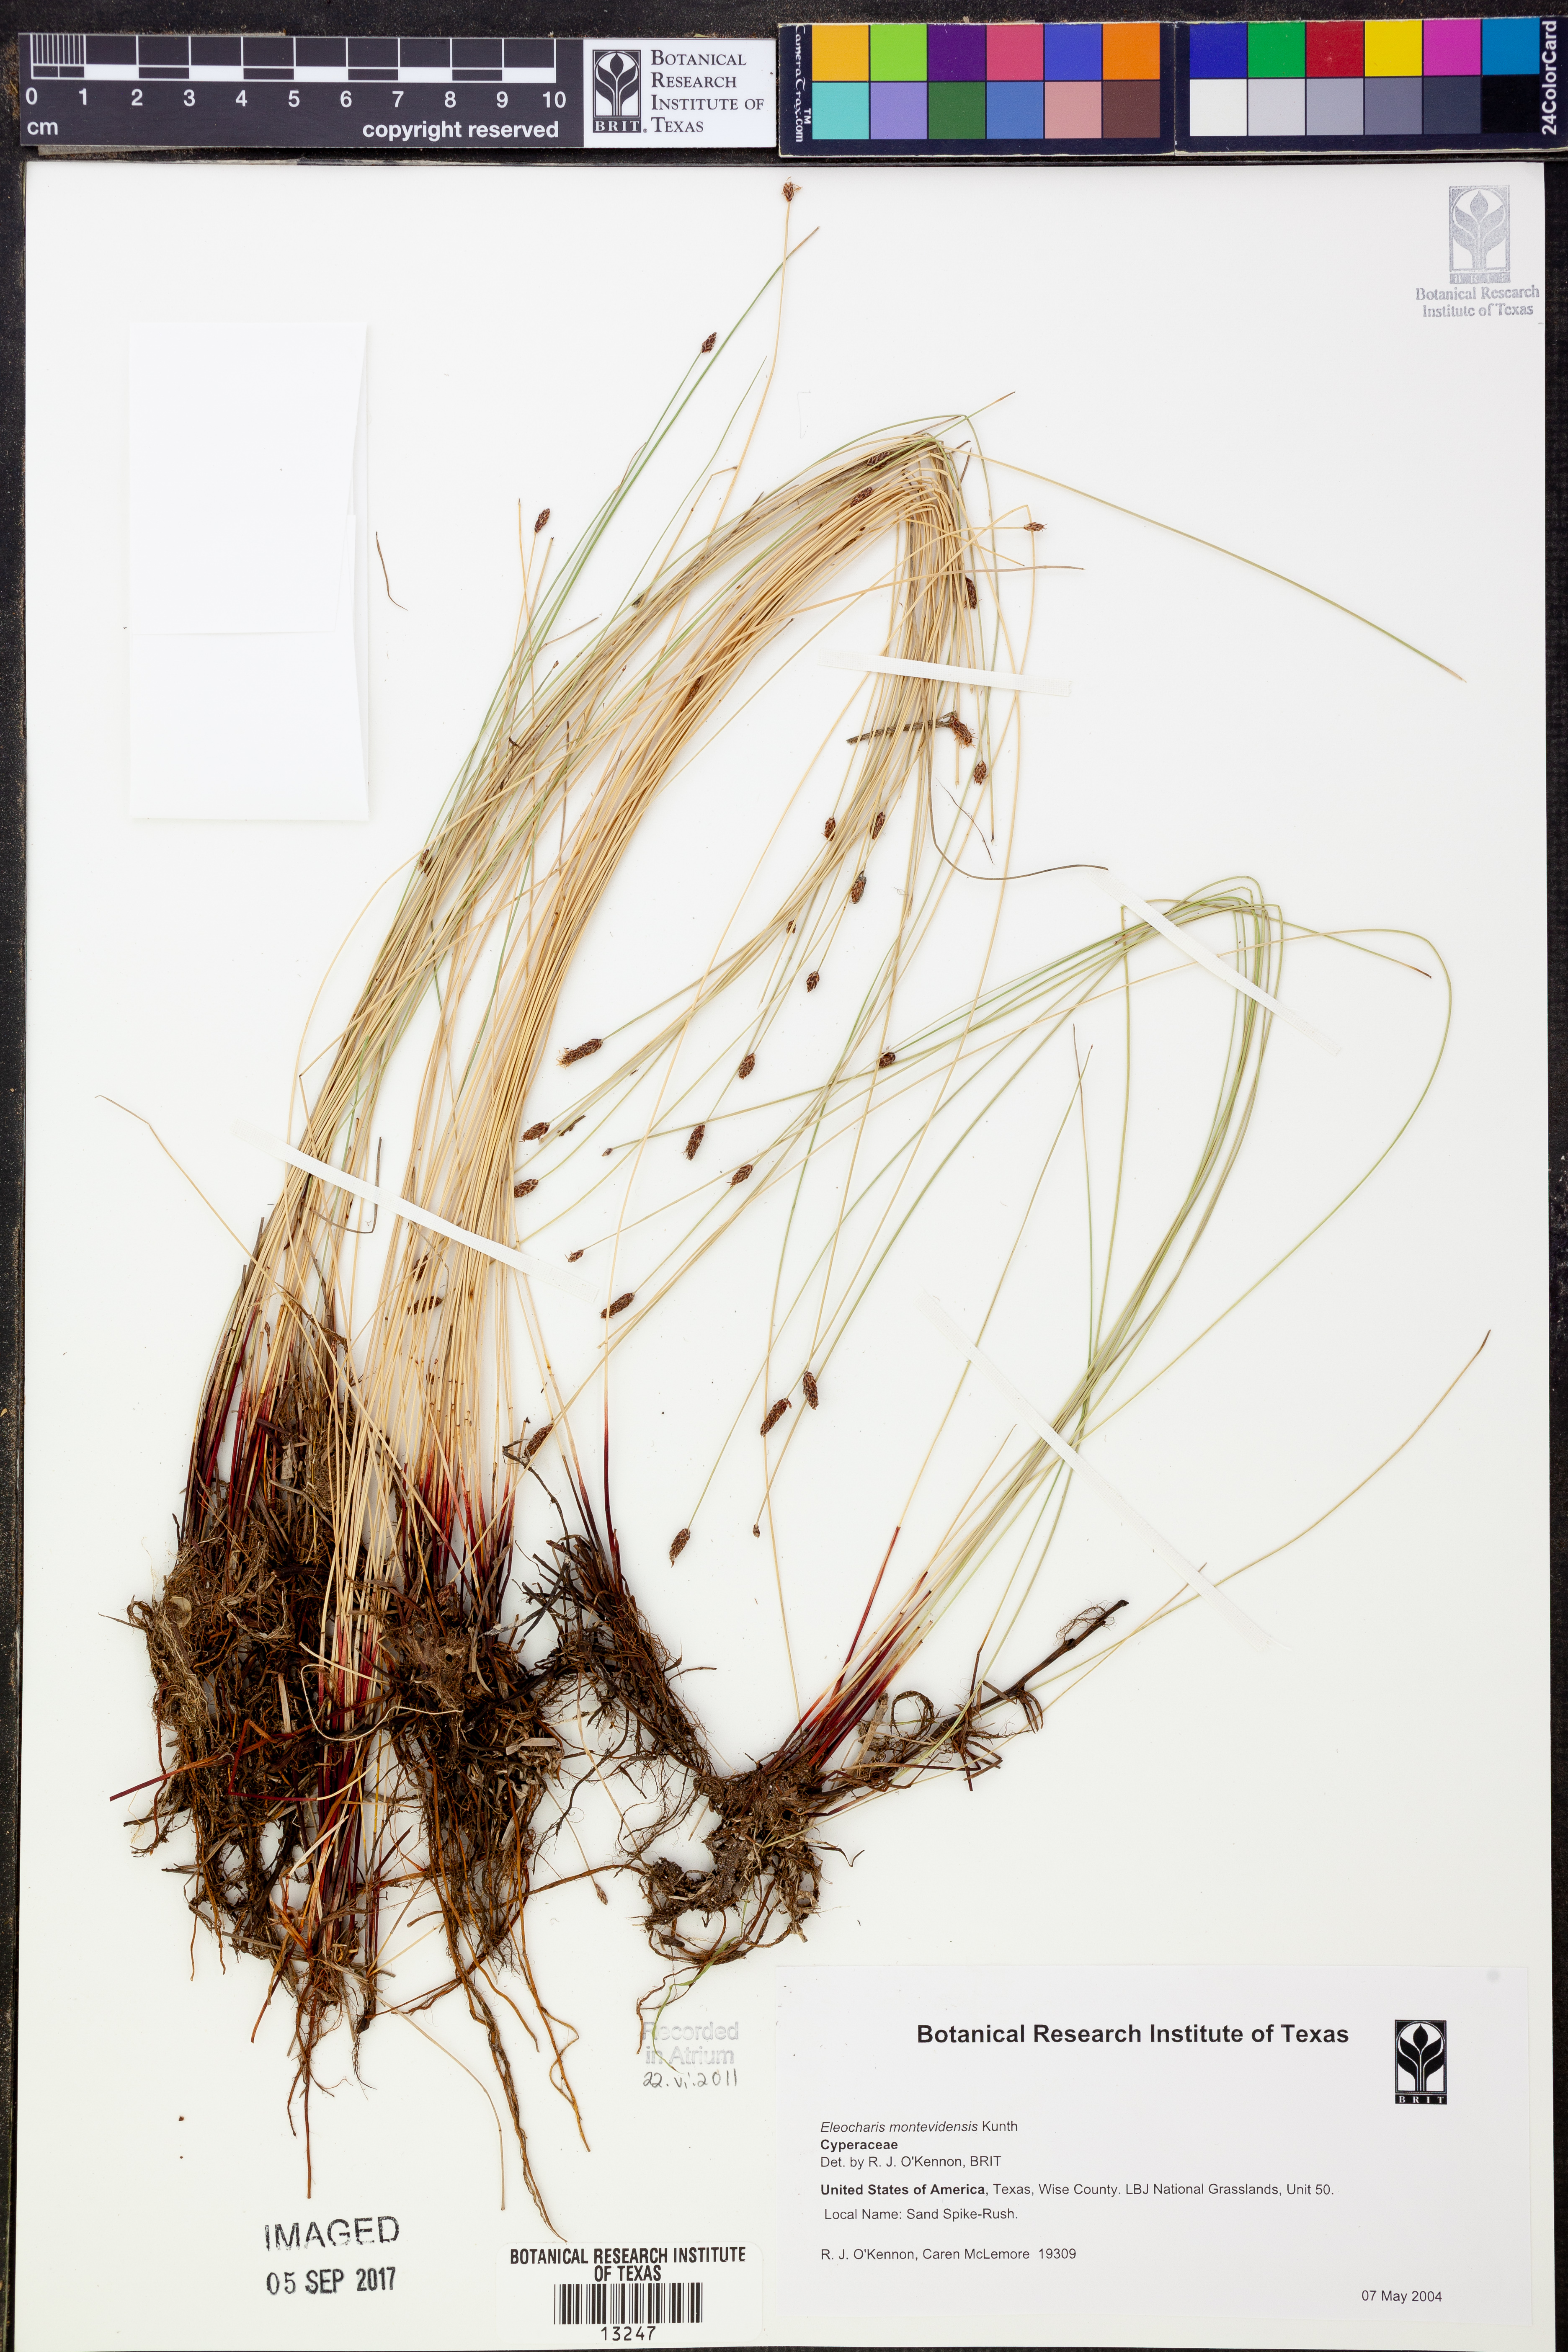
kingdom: Plantae
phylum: Tracheophyta
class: Liliopsida
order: Poales
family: Cyperaceae
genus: Eleocharis
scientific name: Eleocharis montevidensis
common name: Sand spike-rush
